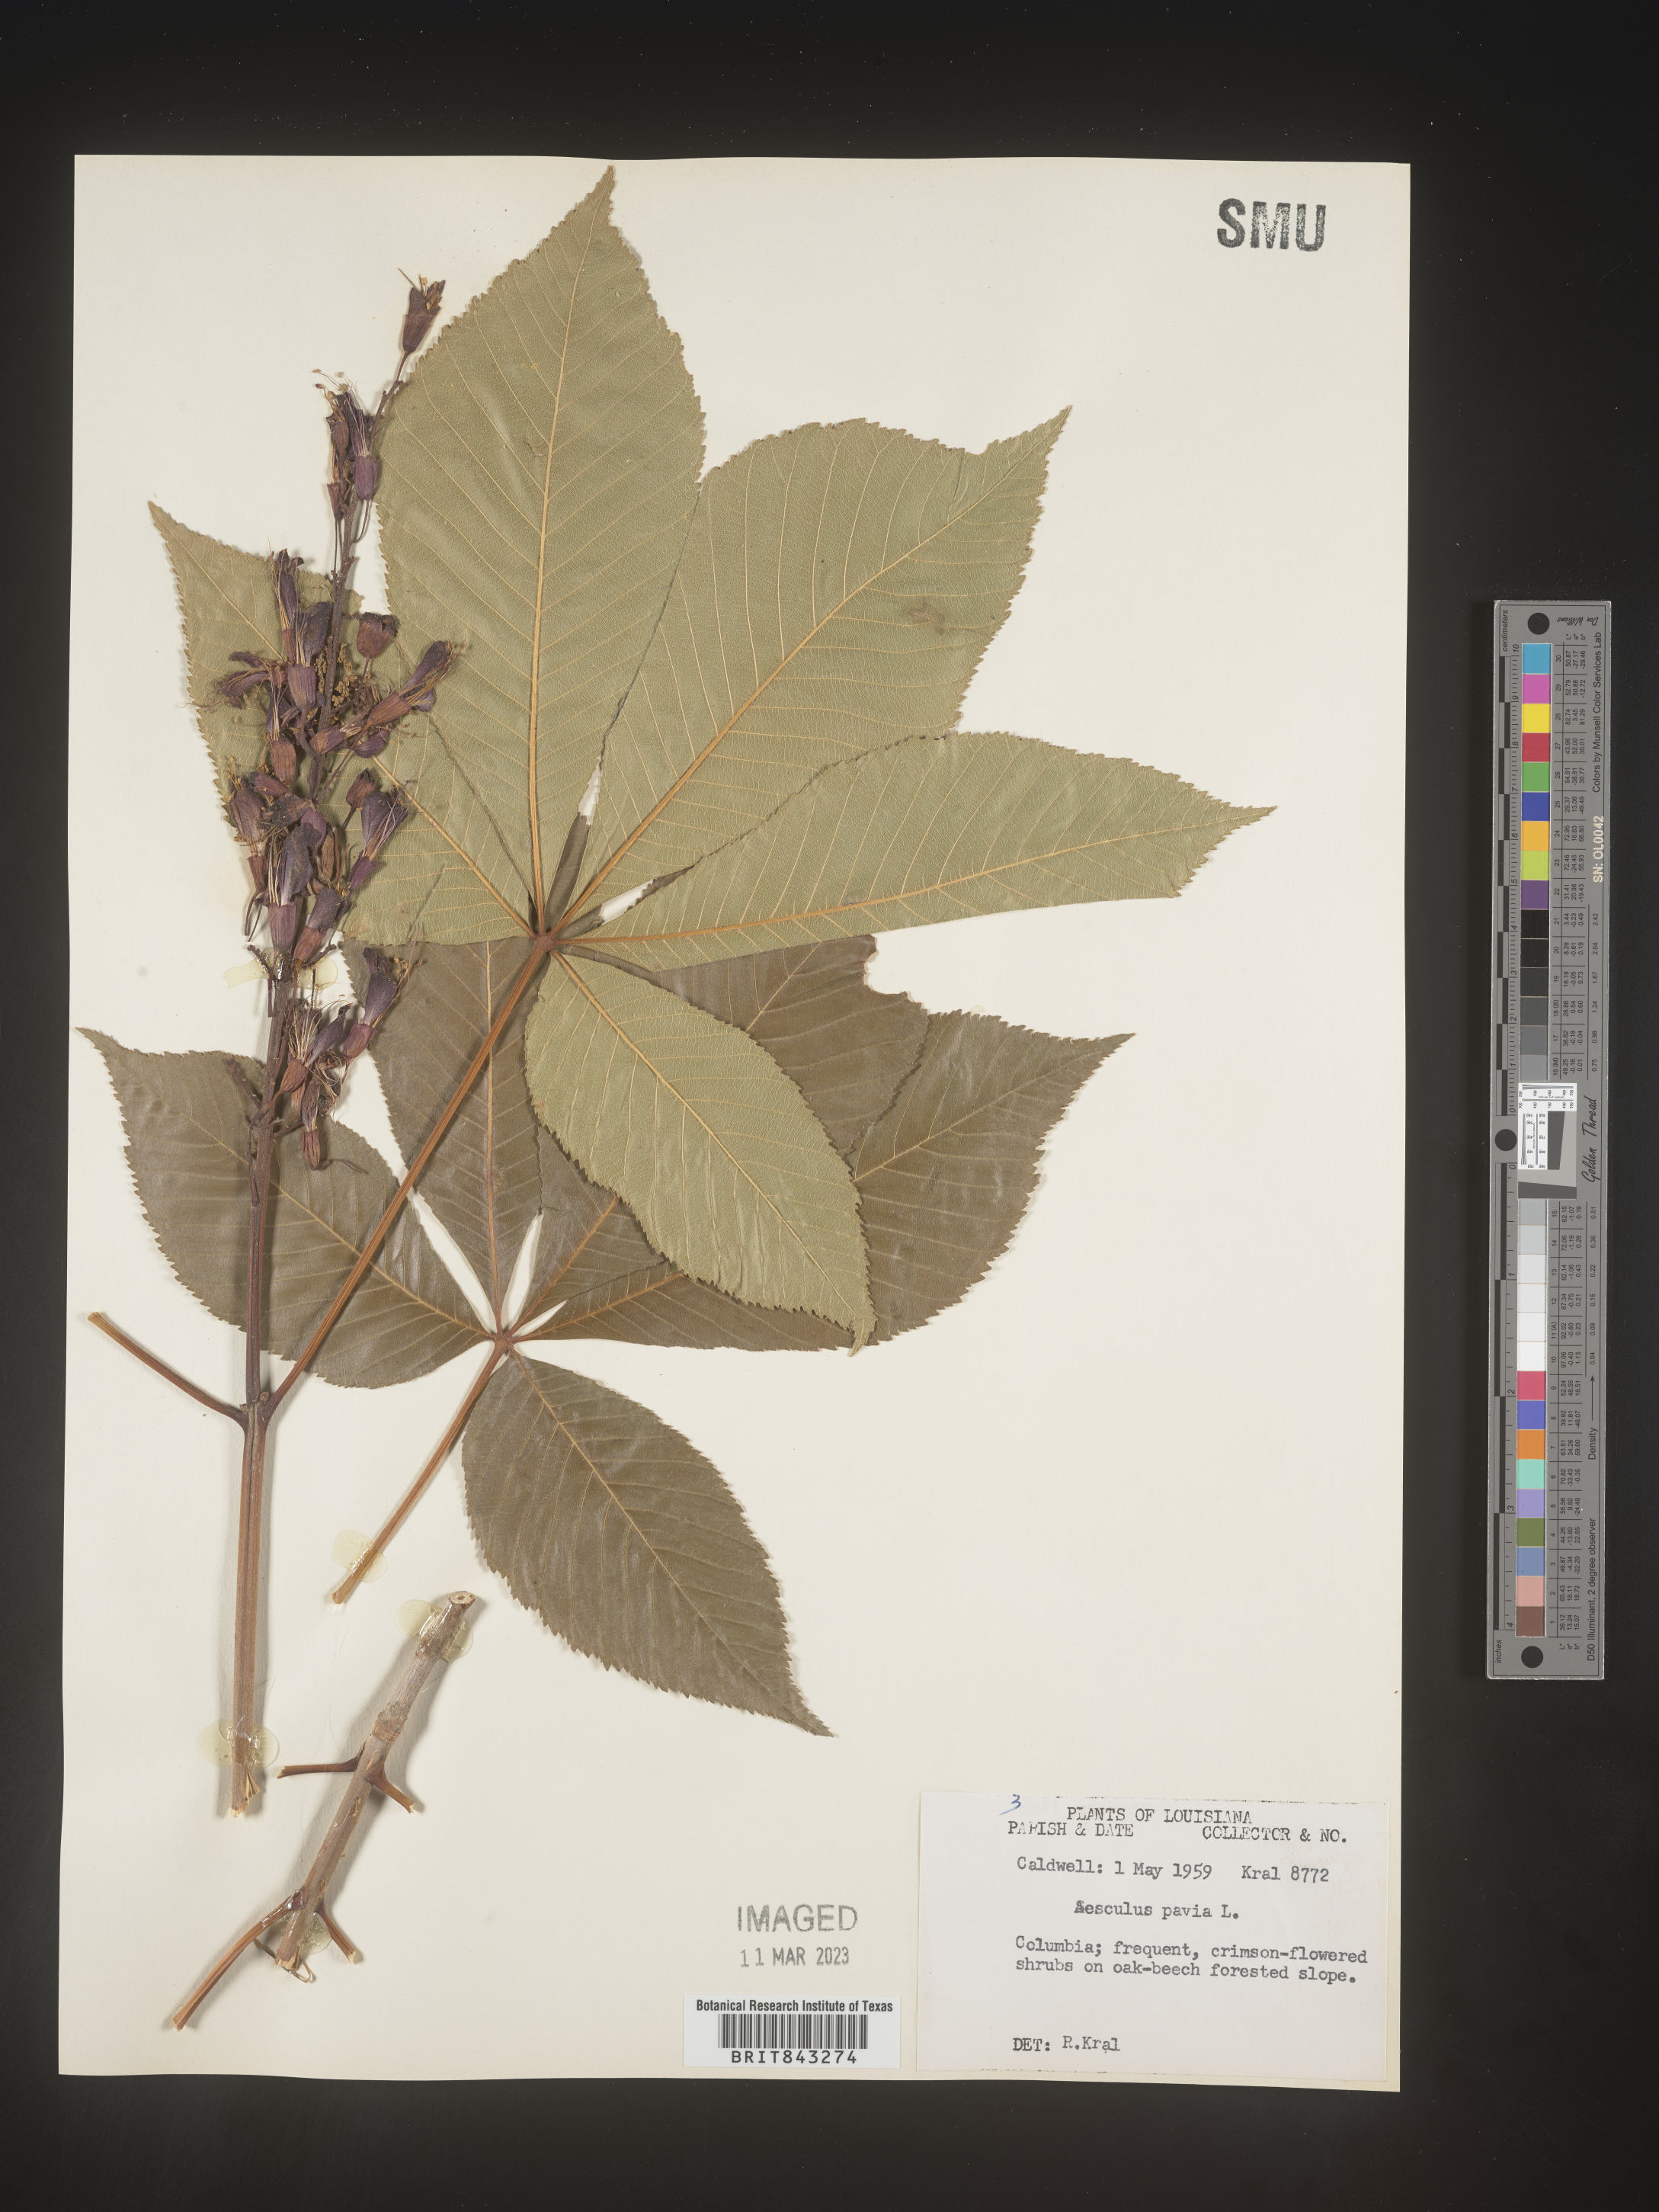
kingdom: Plantae
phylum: Tracheophyta
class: Magnoliopsida
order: Sapindales
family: Sapindaceae
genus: Aesculus
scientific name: Aesculus pavia
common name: Red buckeye
